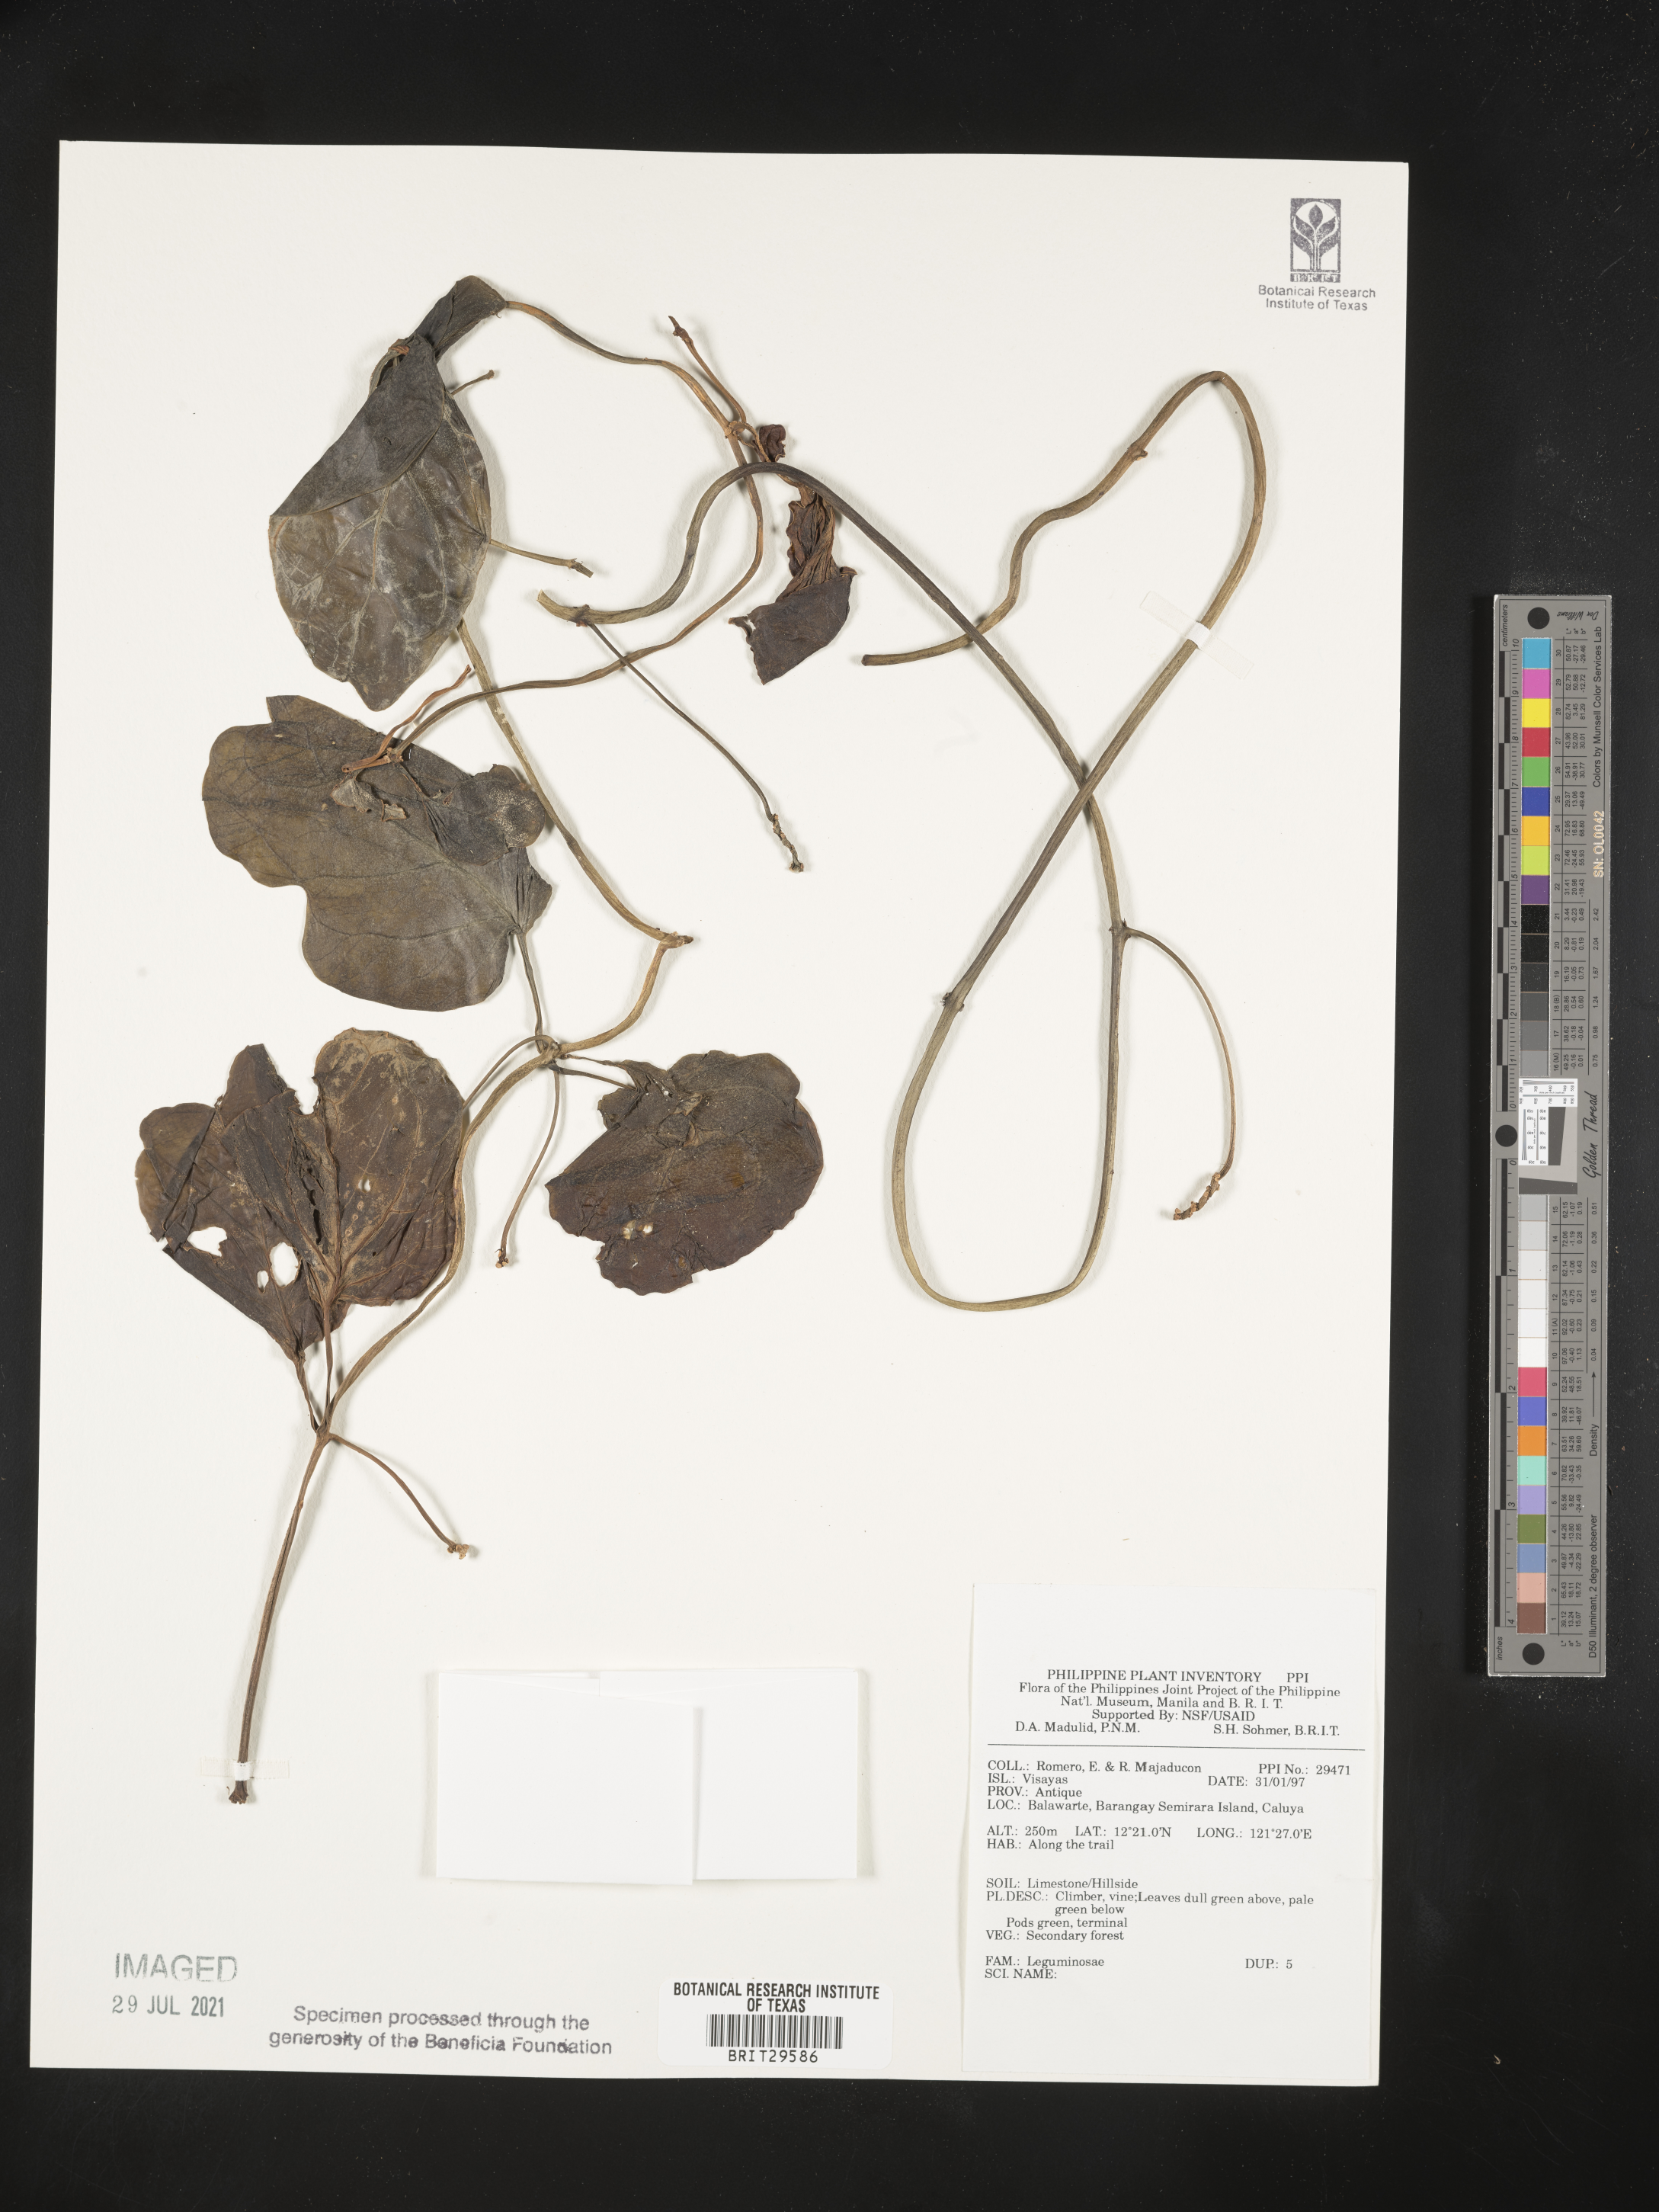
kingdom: Plantae
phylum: Tracheophyta
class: Magnoliopsida
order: Fabales
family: Fabaceae
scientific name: Fabaceae
